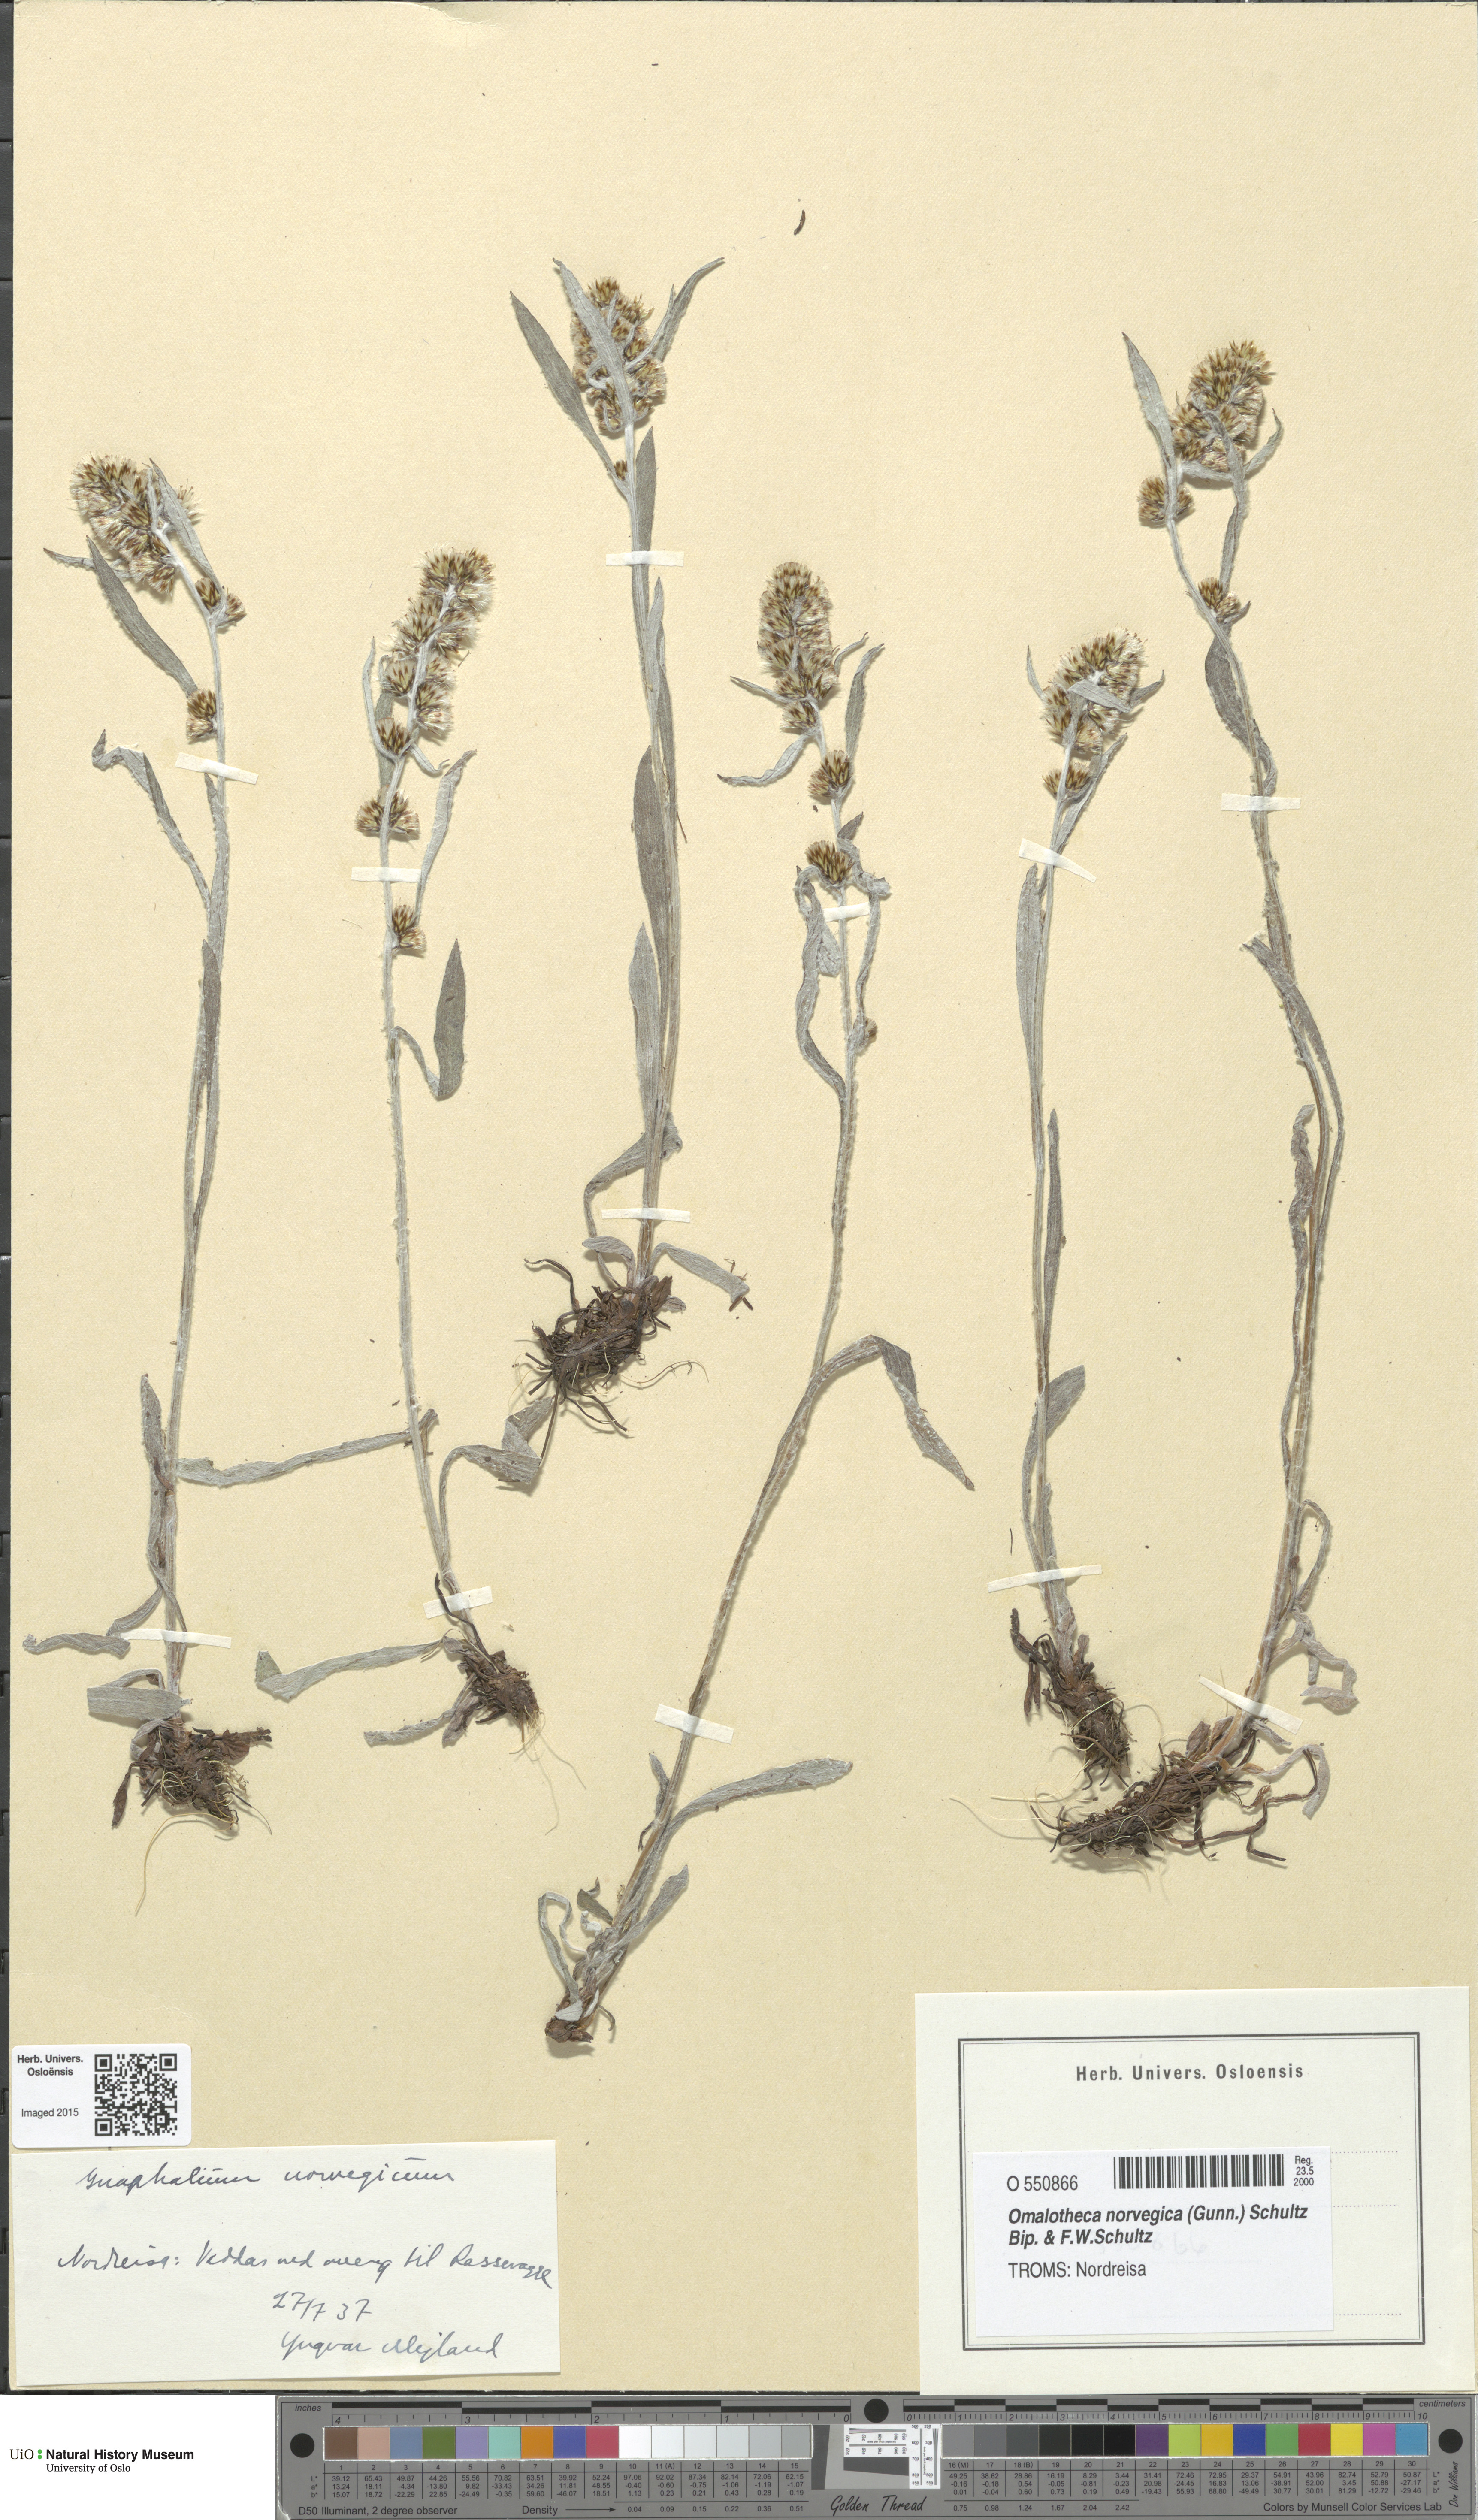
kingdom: Plantae
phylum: Tracheophyta
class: Magnoliopsida
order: Asterales
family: Asteraceae
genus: Omalotheca
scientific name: Omalotheca norvegica
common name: Norwegian arctic-cudweed
